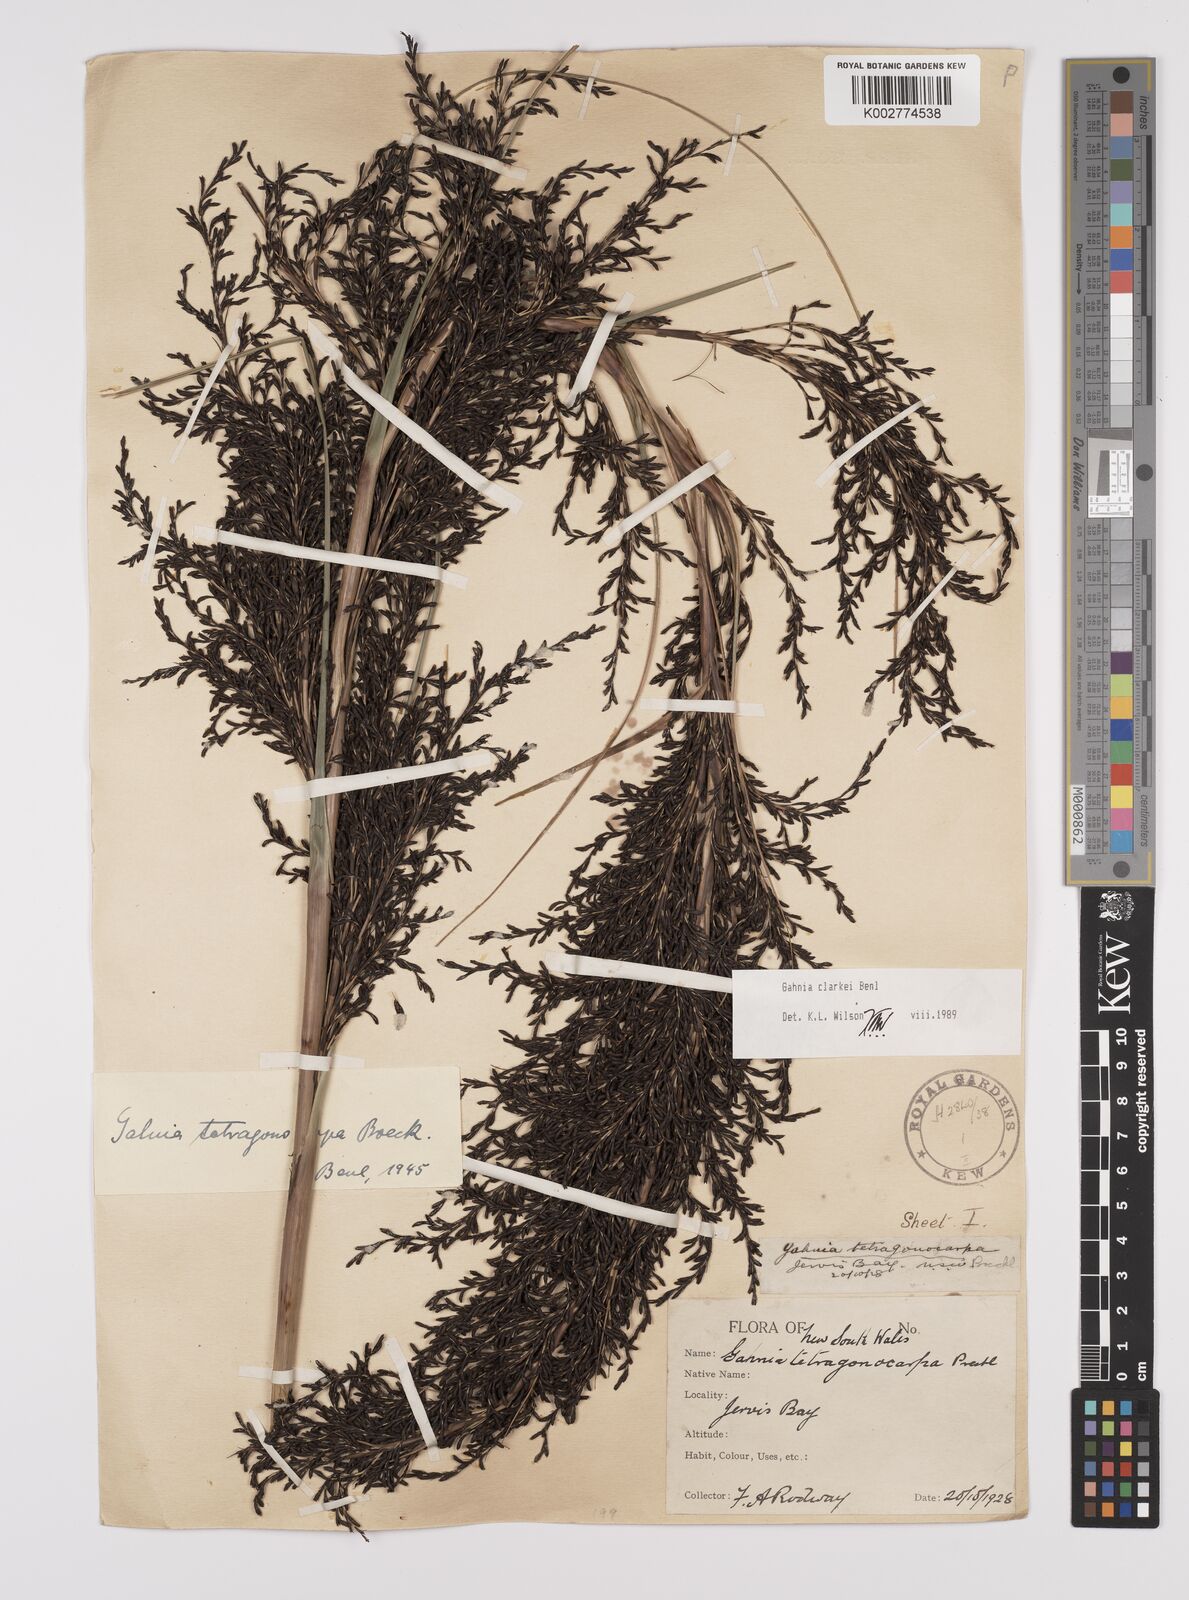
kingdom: Plantae
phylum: Tracheophyta
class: Liliopsida
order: Poales
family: Cyperaceae
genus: Gahnia
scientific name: Gahnia clarkei
